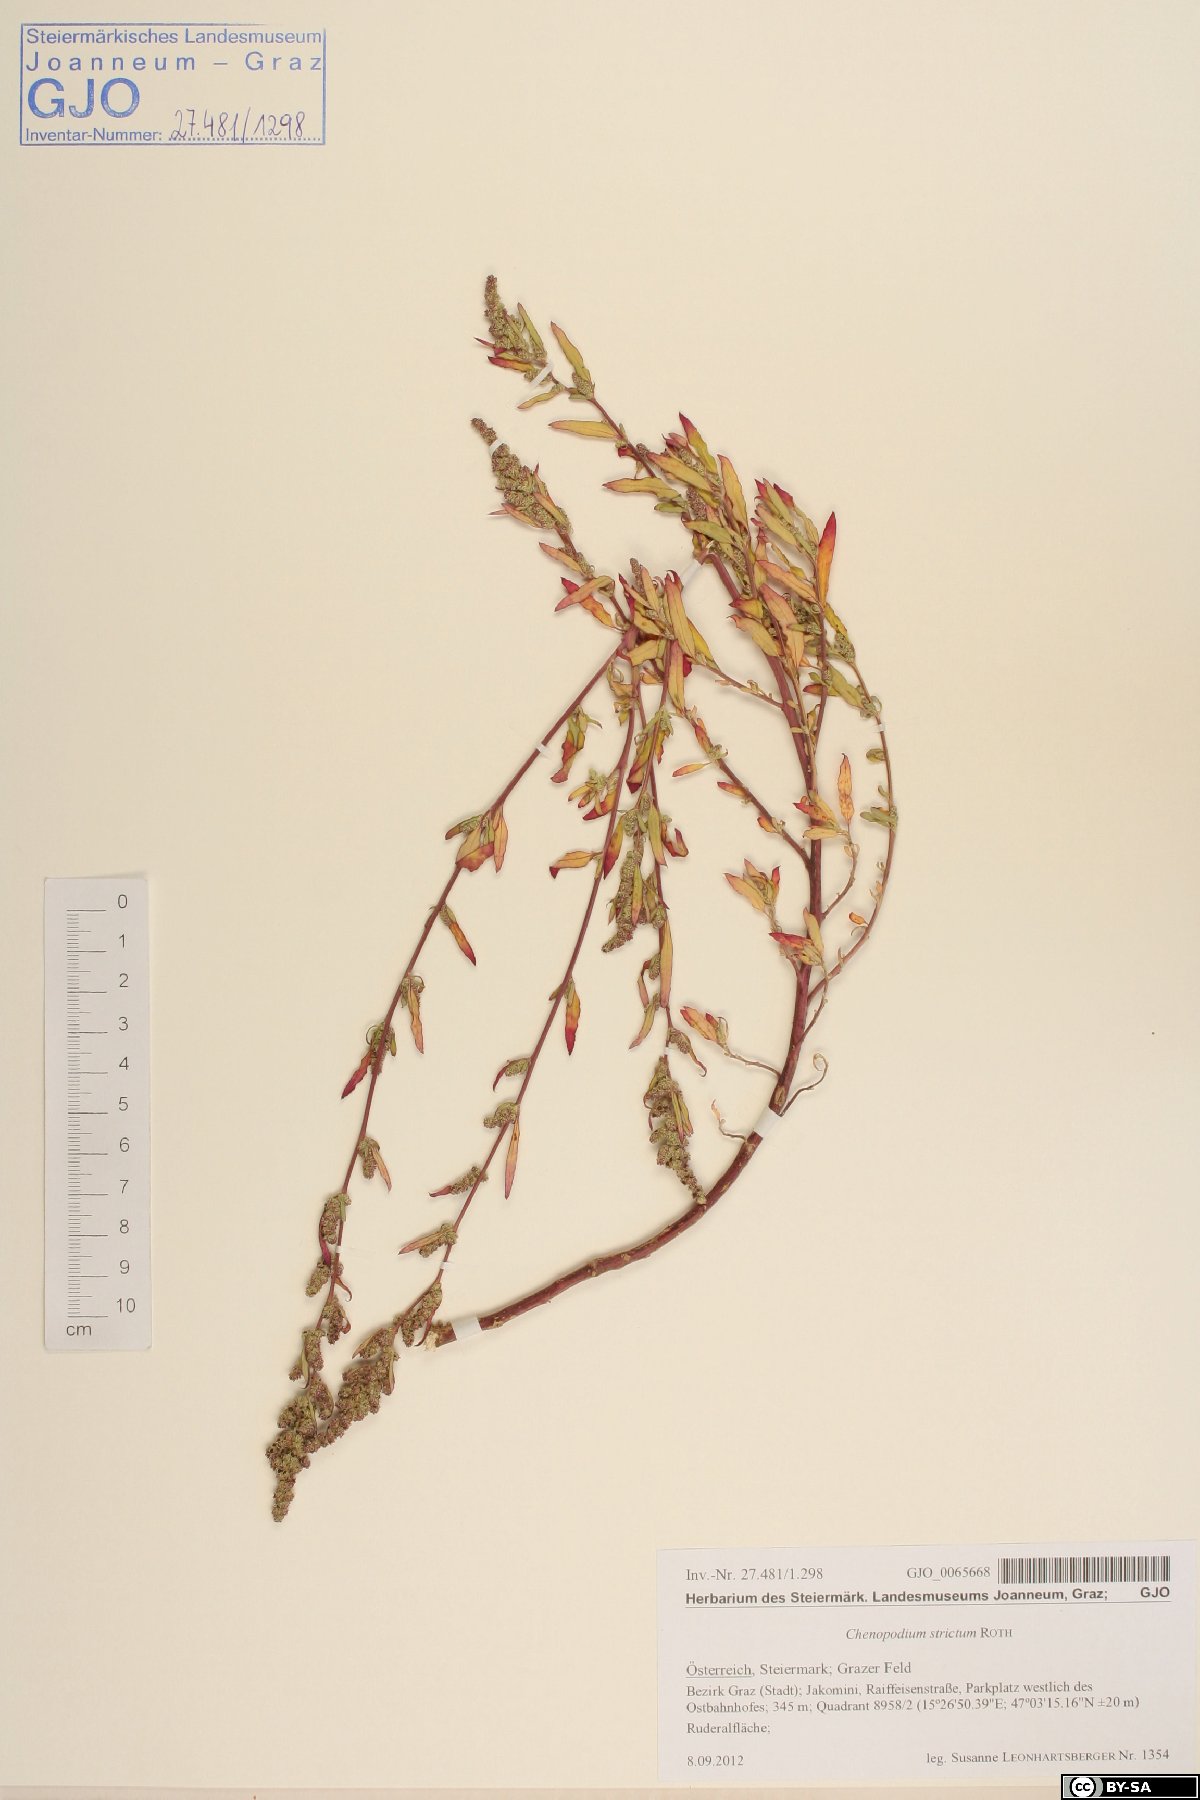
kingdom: Plantae
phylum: Tracheophyta
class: Magnoliopsida
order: Caryophyllales
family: Amaranthaceae
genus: Chenopodium
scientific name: Chenopodium album
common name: Fat-hen
